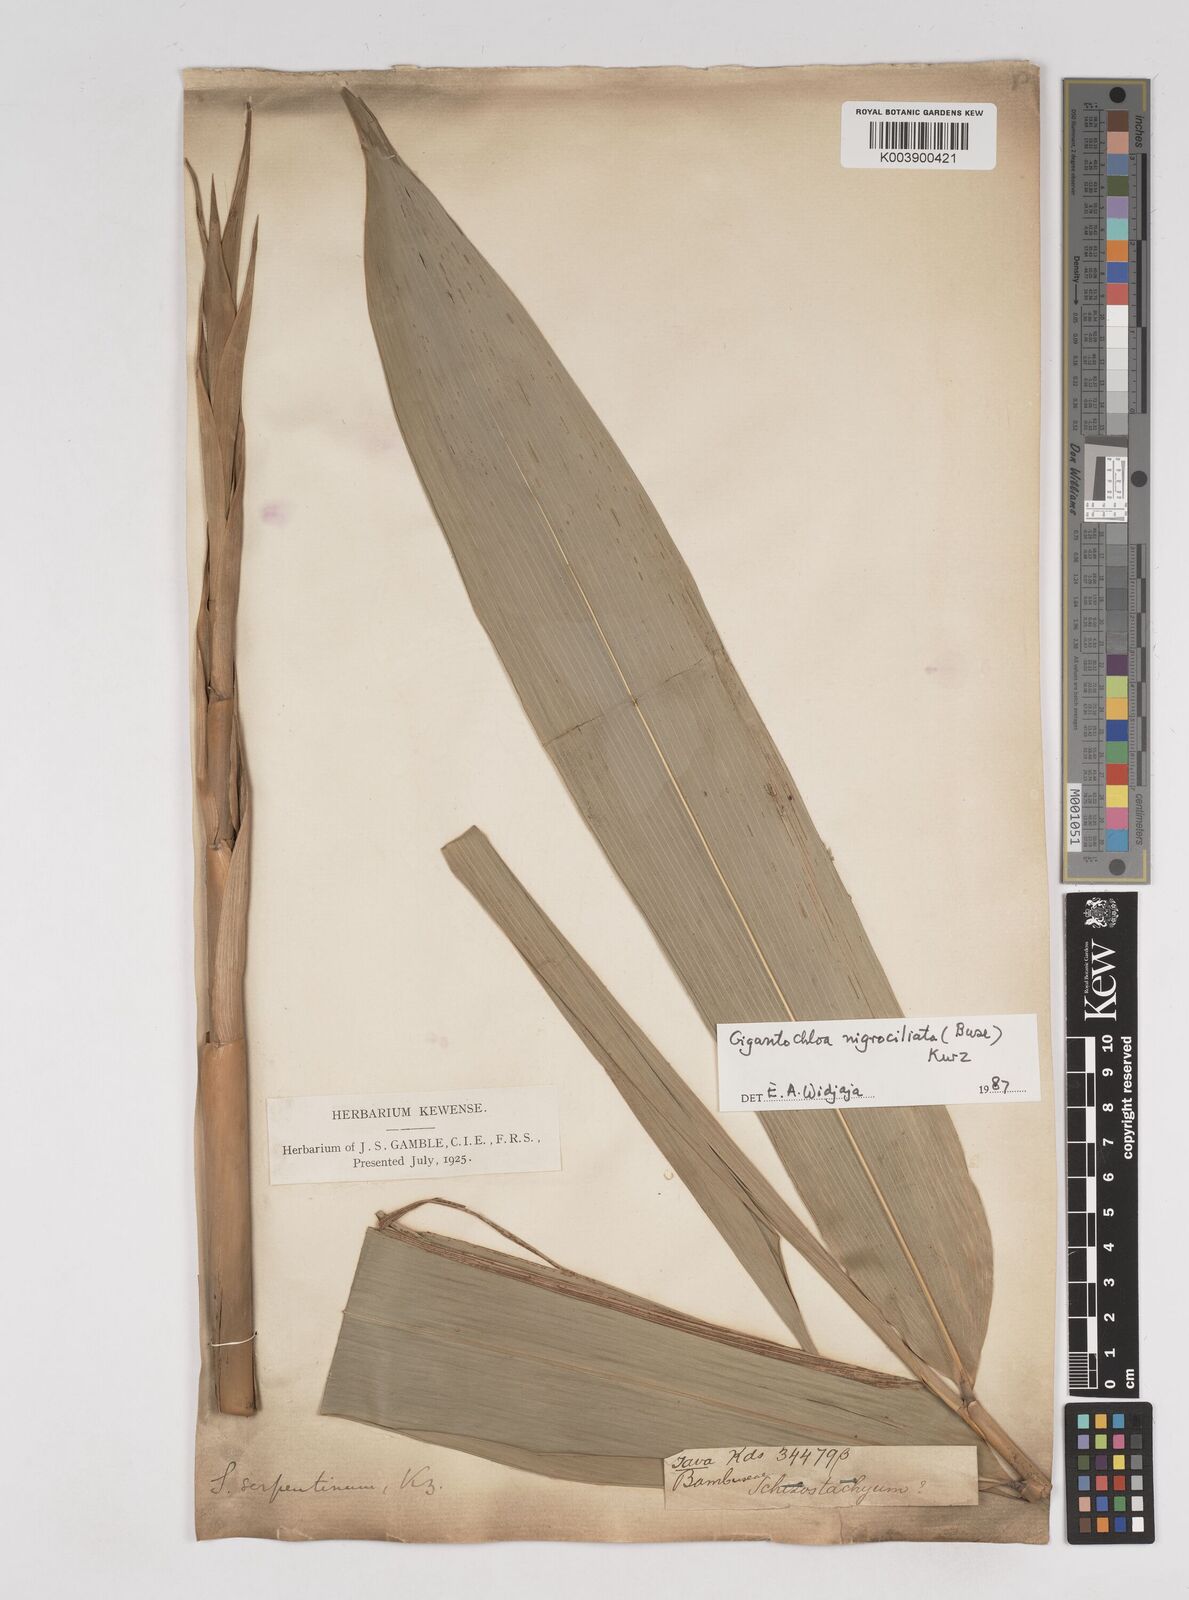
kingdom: Plantae
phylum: Tracheophyta
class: Liliopsida
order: Poales
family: Poaceae
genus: Gigantochloa
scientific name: Gigantochloa nigrociliata
